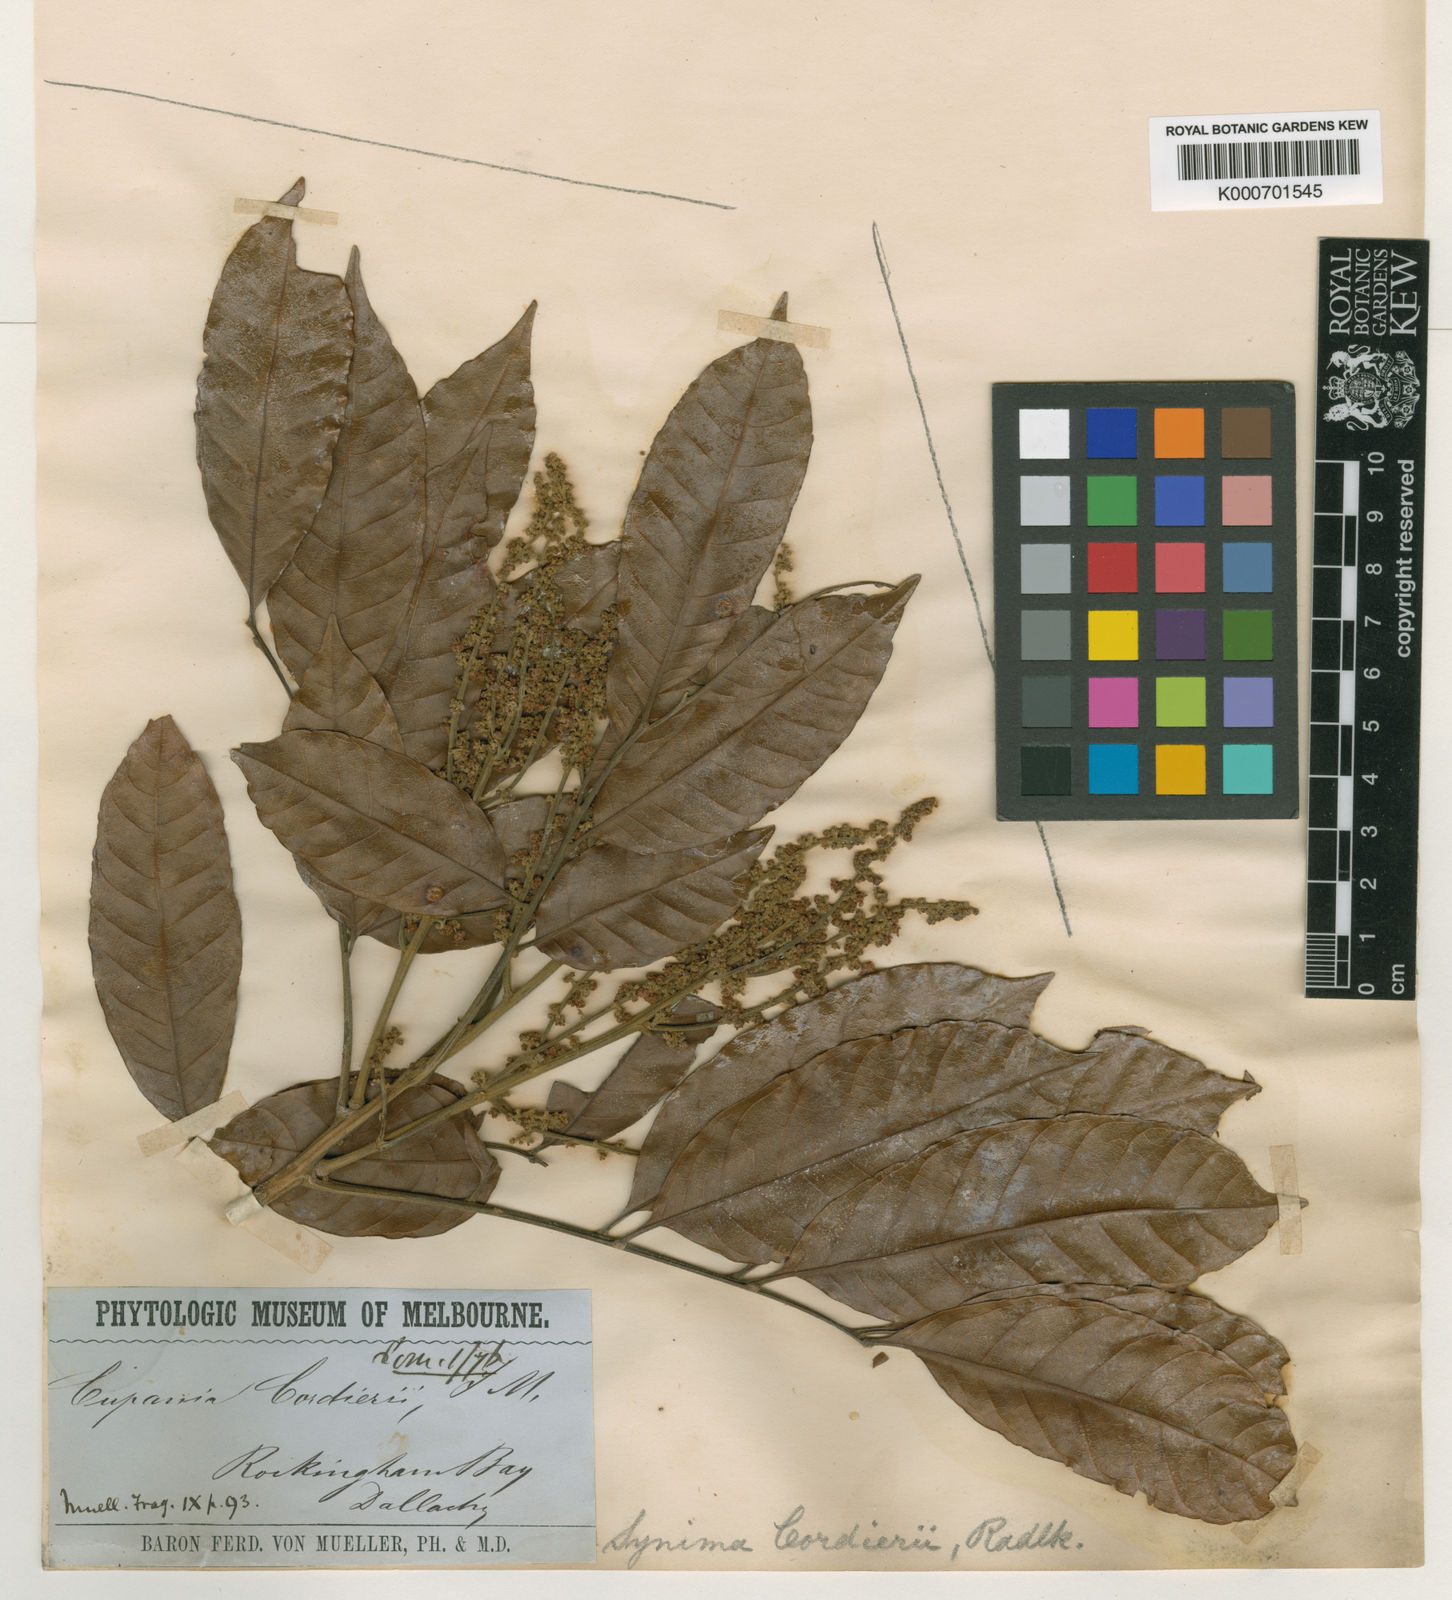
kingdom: Plantae
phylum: Tracheophyta
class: Magnoliopsida
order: Sapindales
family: Sapindaceae
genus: Synima
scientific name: Synima cordierorum
